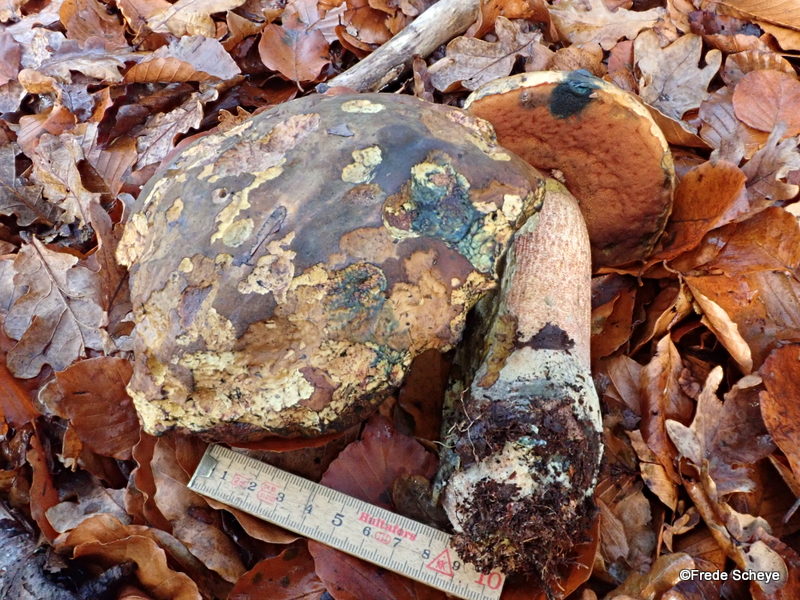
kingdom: Fungi
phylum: Basidiomycota
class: Agaricomycetes
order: Boletales
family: Boletaceae
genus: Neoboletus
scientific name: Neoboletus erythropus
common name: punktstokket indigorørhat
